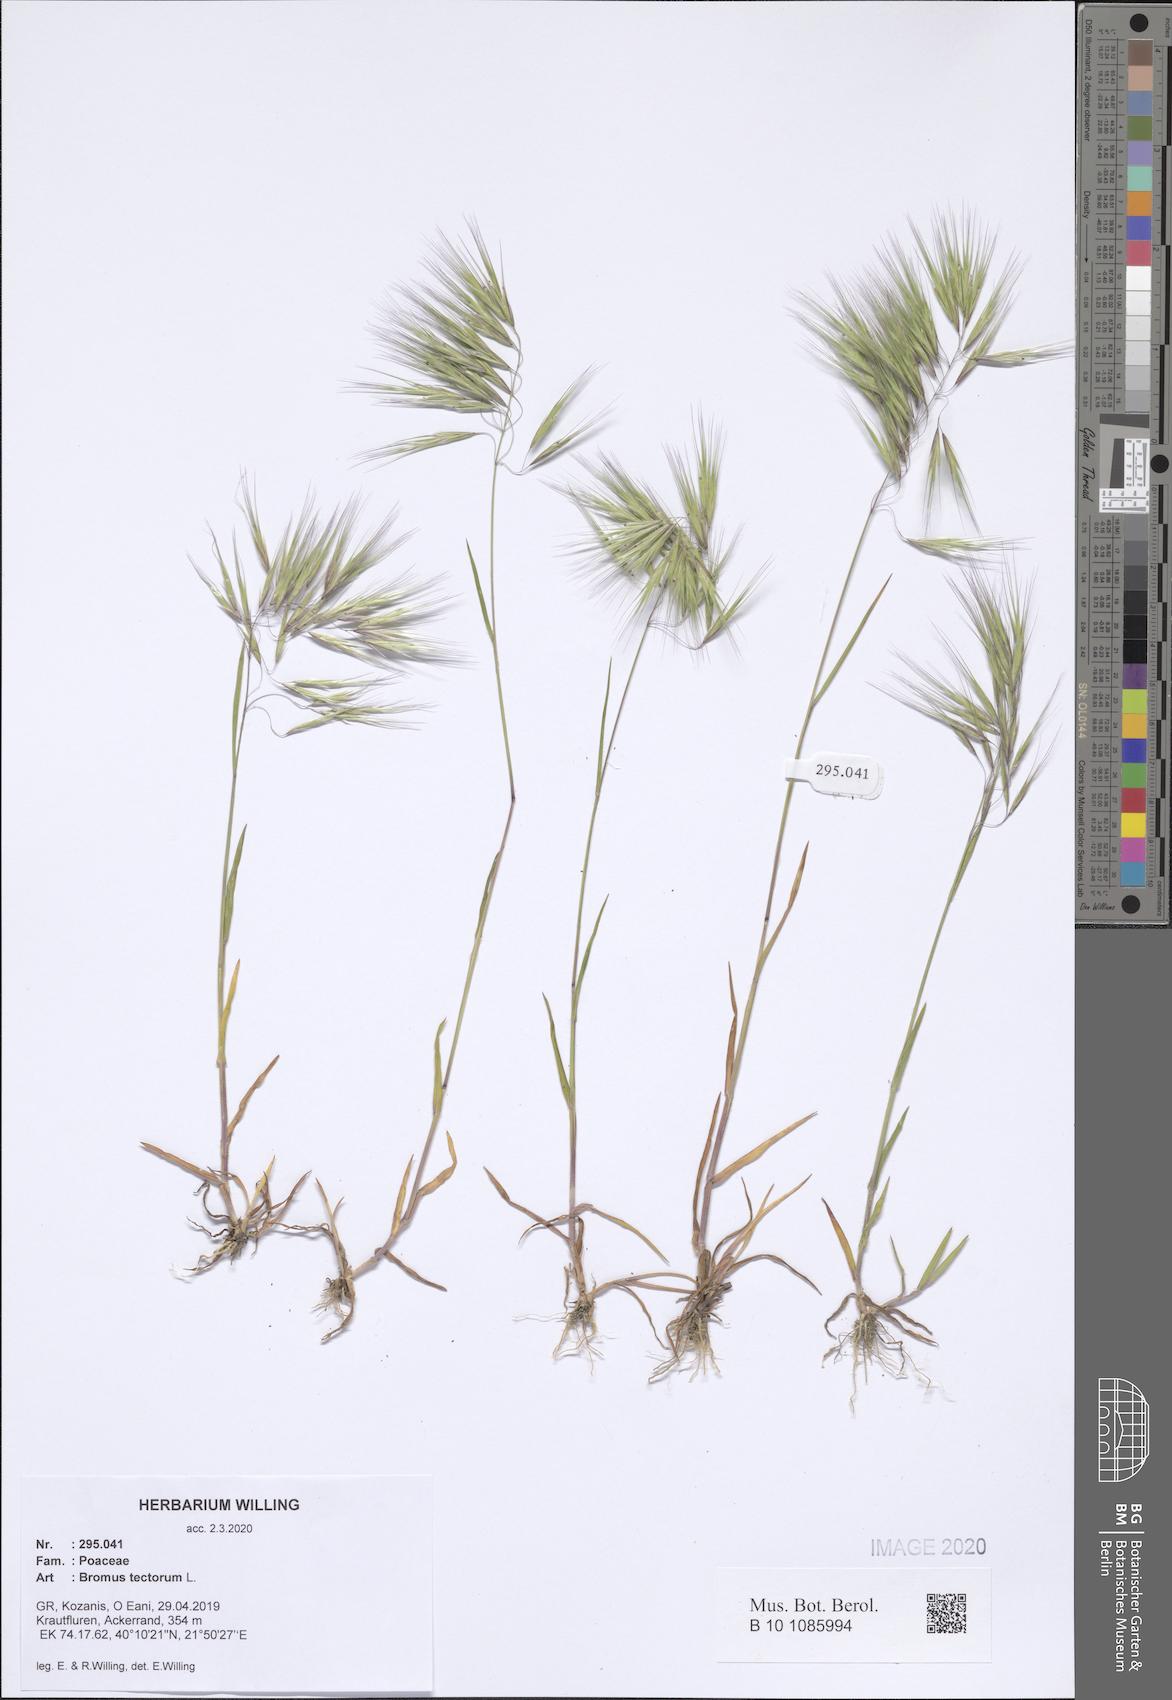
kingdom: Plantae
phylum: Tracheophyta
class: Liliopsida
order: Poales
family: Poaceae
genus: Bromus
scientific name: Bromus tectorum
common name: Cheatgrass
